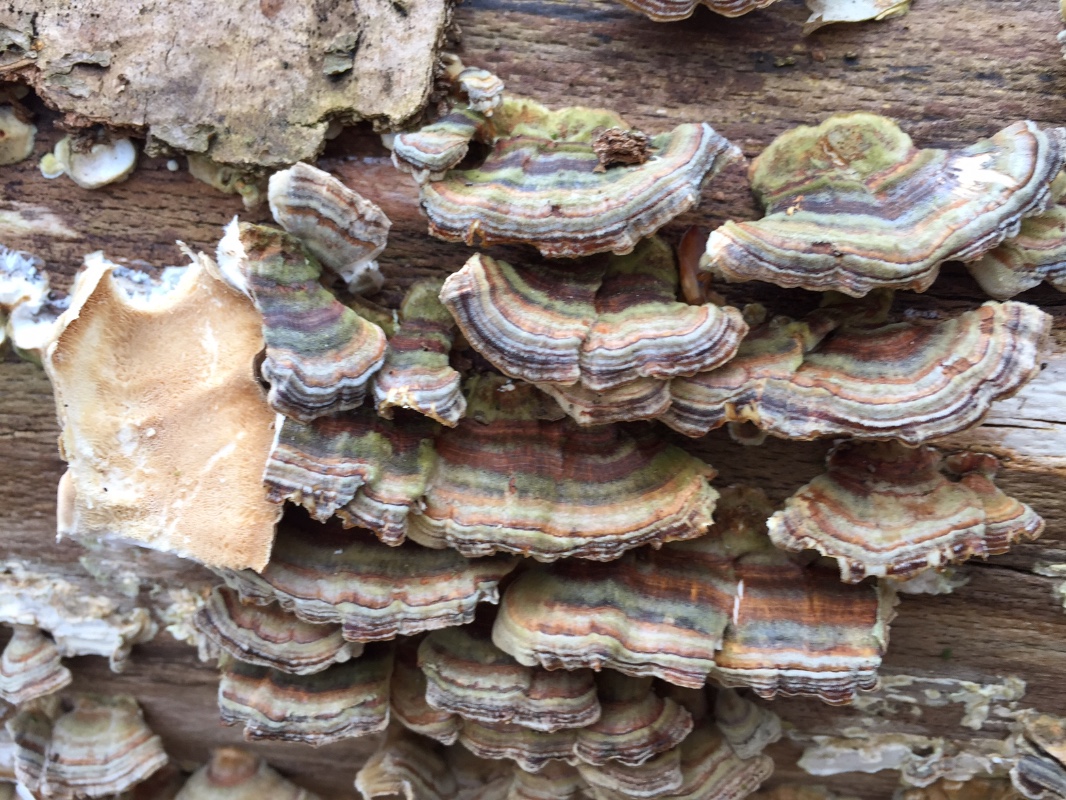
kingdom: Fungi
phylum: Basidiomycota
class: Agaricomycetes
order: Polyporales
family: Polyporaceae
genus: Trametes
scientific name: Trametes versicolor
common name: broget læderporesvamp
